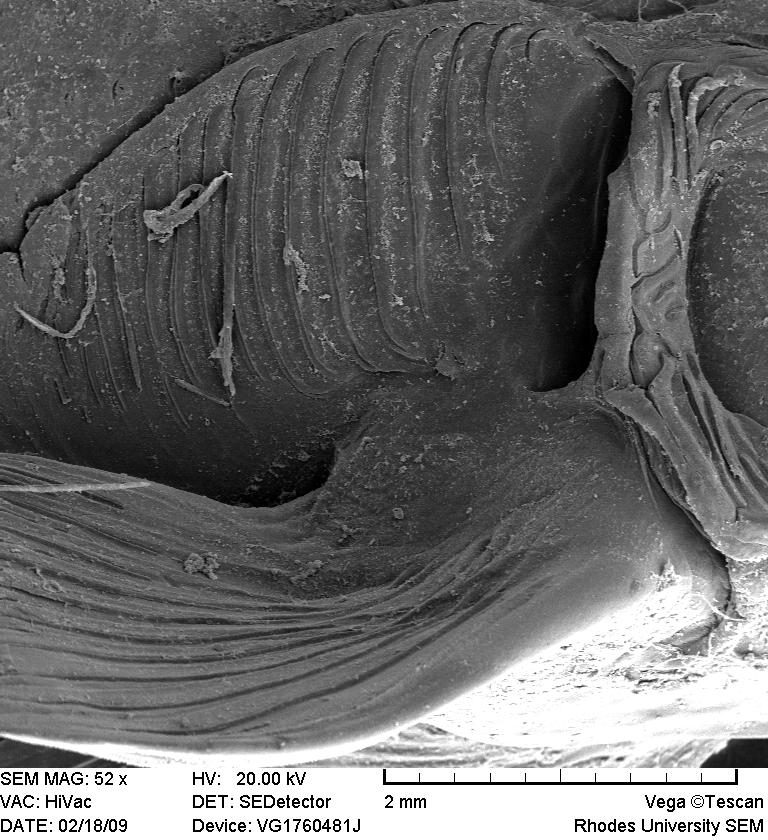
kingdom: Animalia
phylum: Chordata
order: Gonorynchiformes
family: Kneriidae
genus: Kneria
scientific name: Kneria
